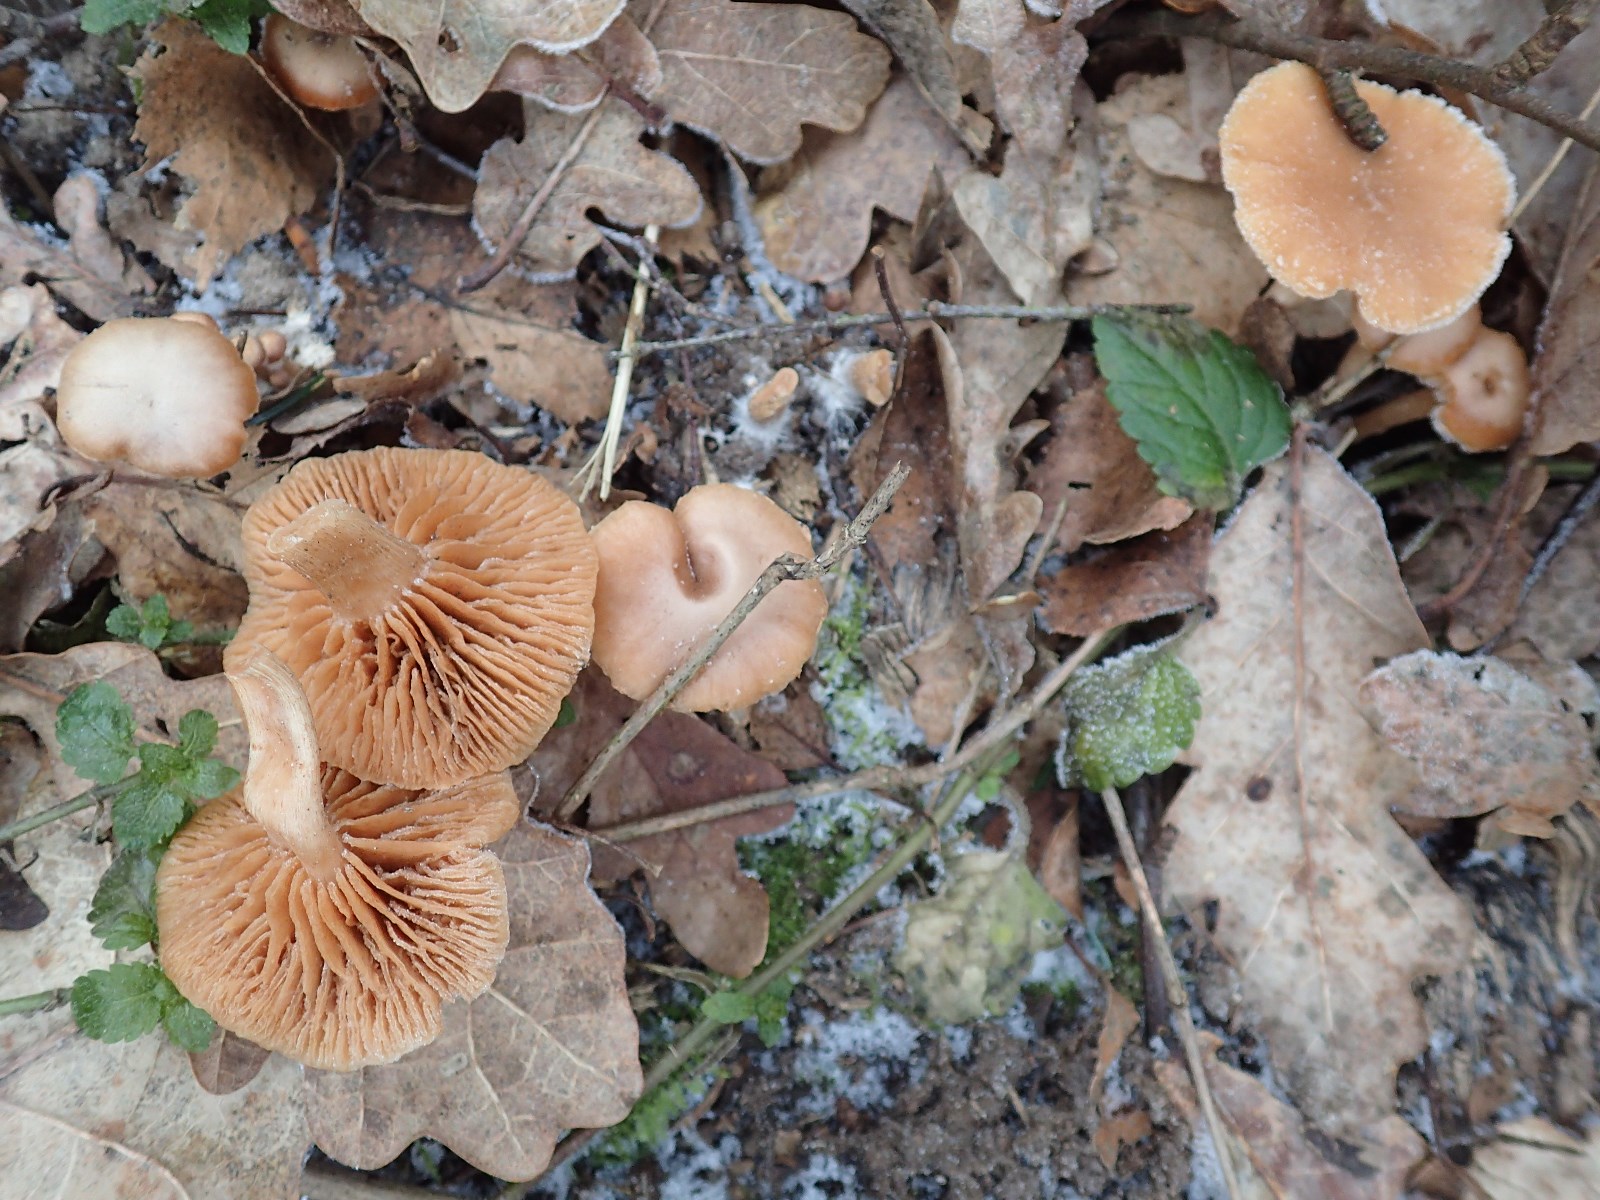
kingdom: Fungi
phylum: Basidiomycota
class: Agaricomycetes
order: Agaricales
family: Tubariaceae
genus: Tubaria
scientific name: Tubaria furfuracea
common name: kliddet fnughat
